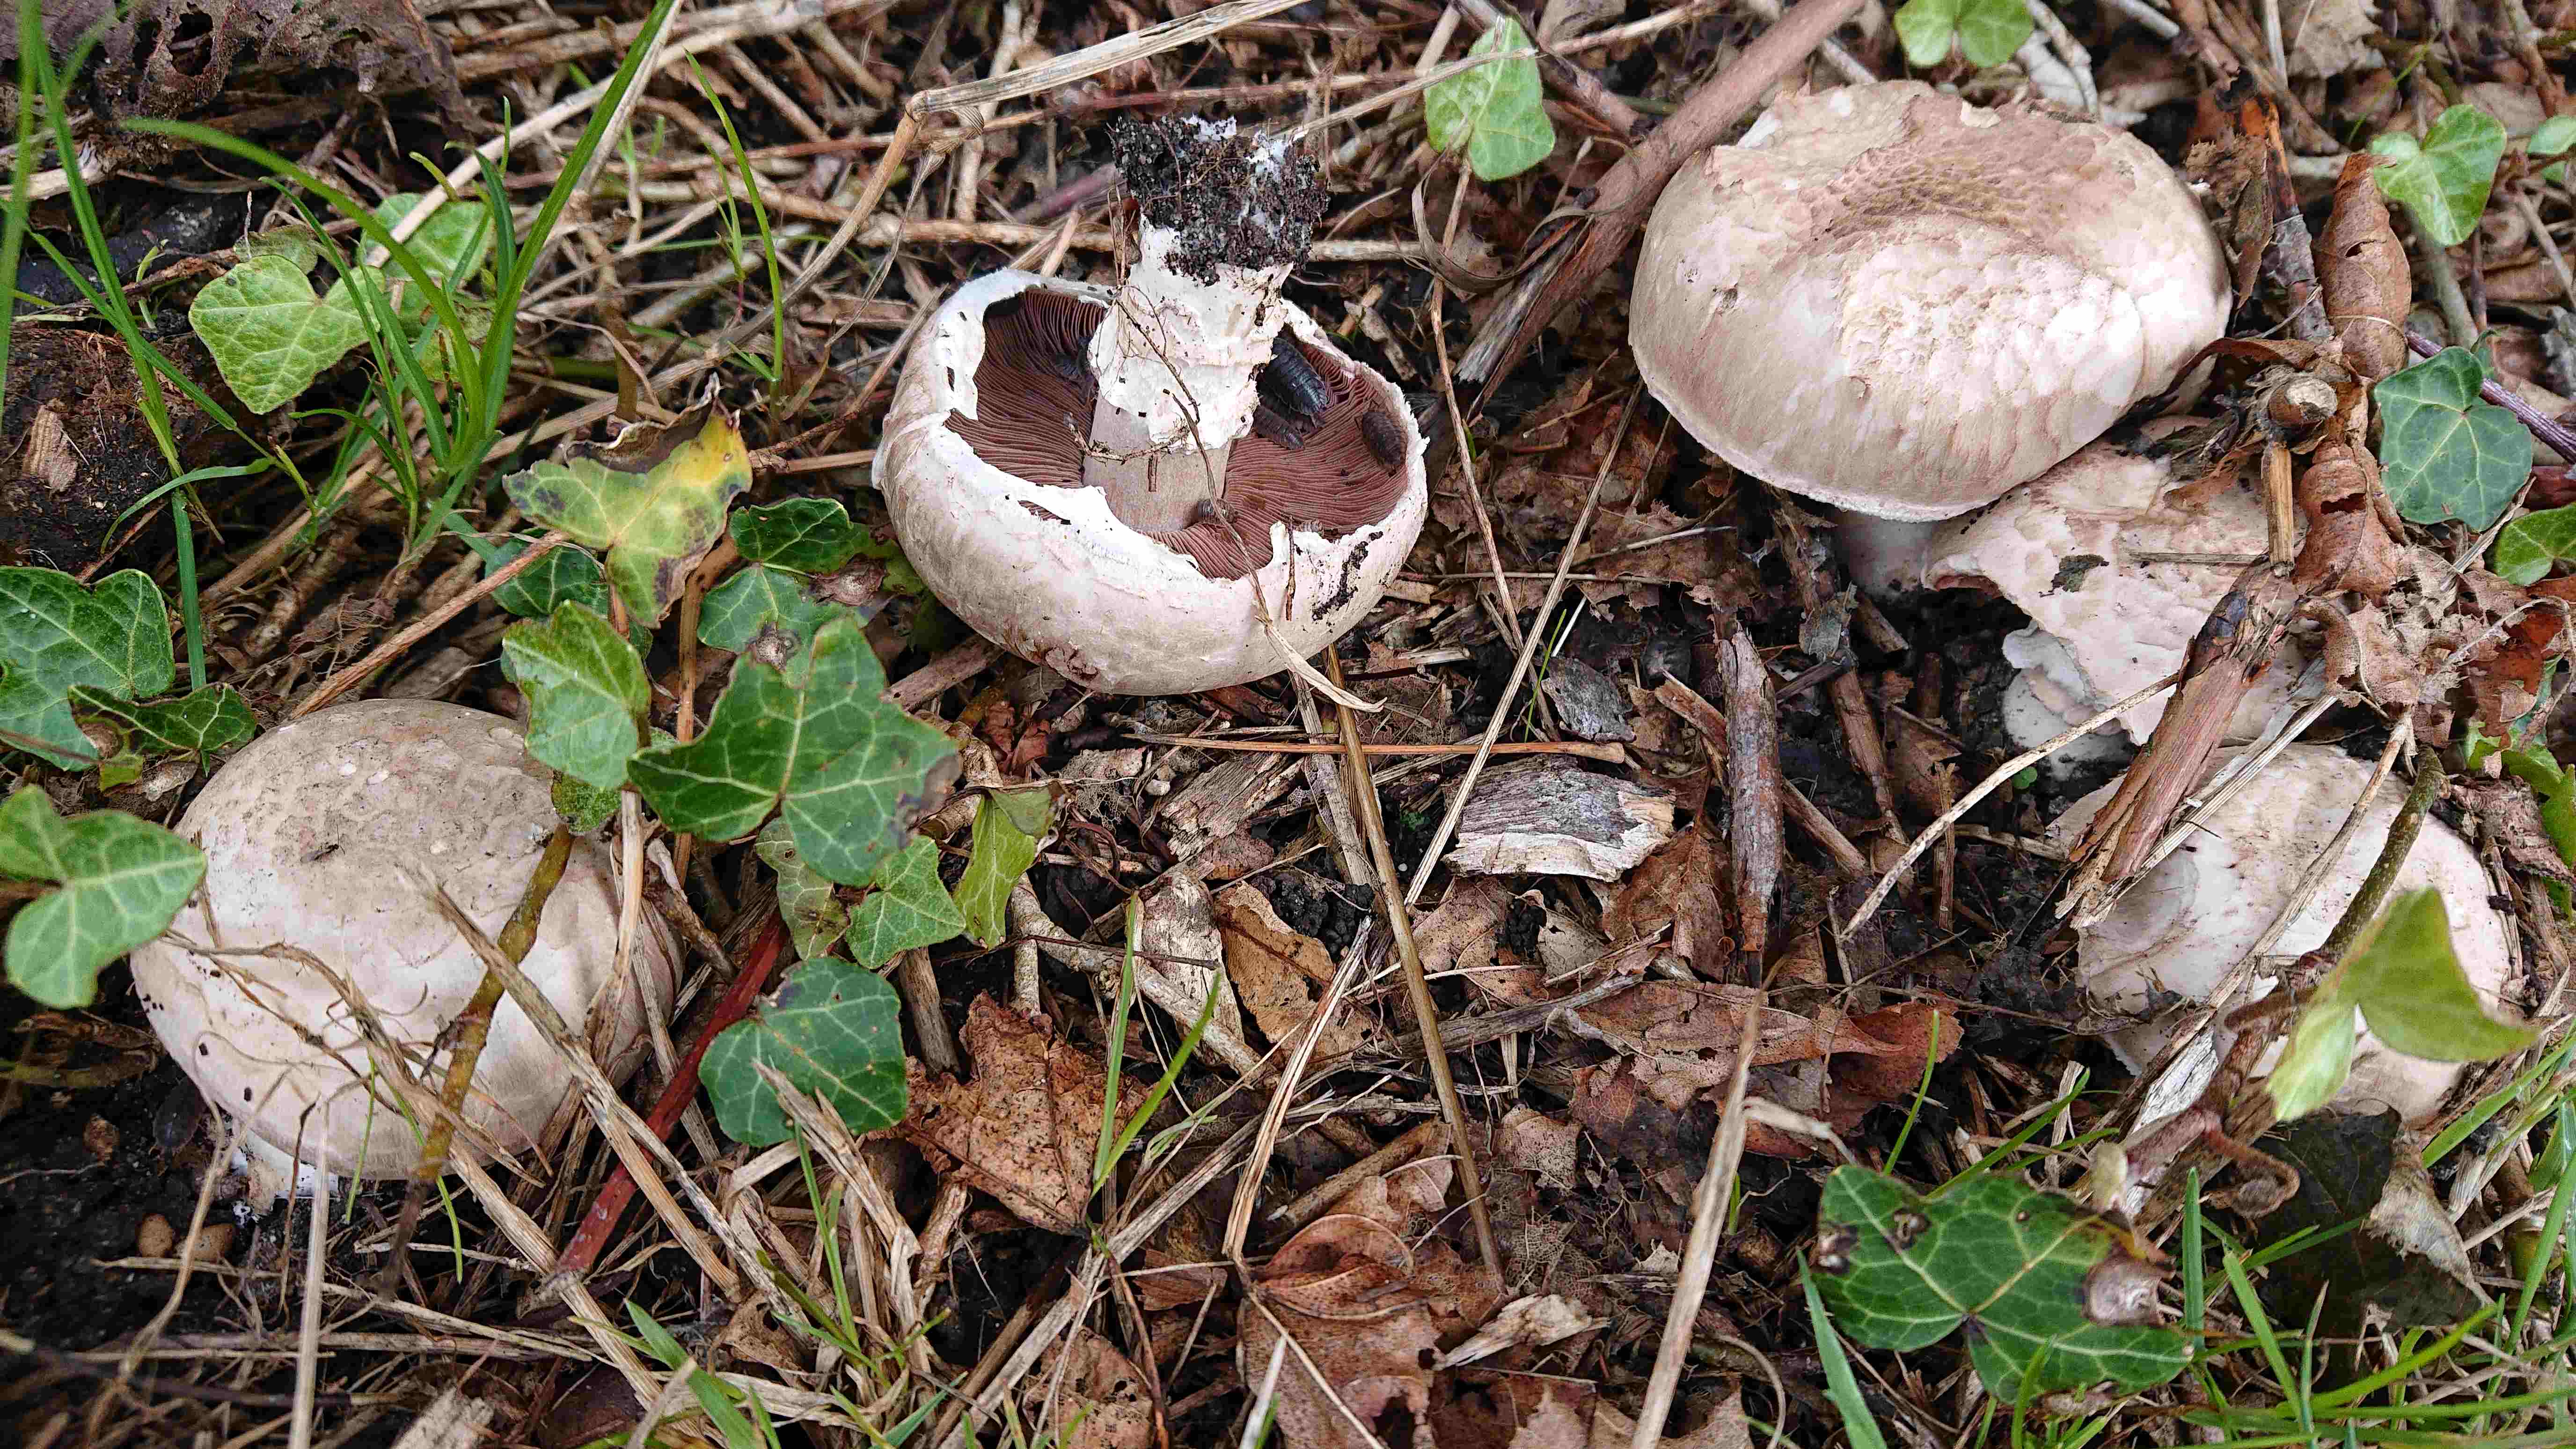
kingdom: Fungi
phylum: Basidiomycota
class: Agaricomycetes
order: Agaricales
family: Agaricaceae
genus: Agaricus
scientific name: Agaricus
